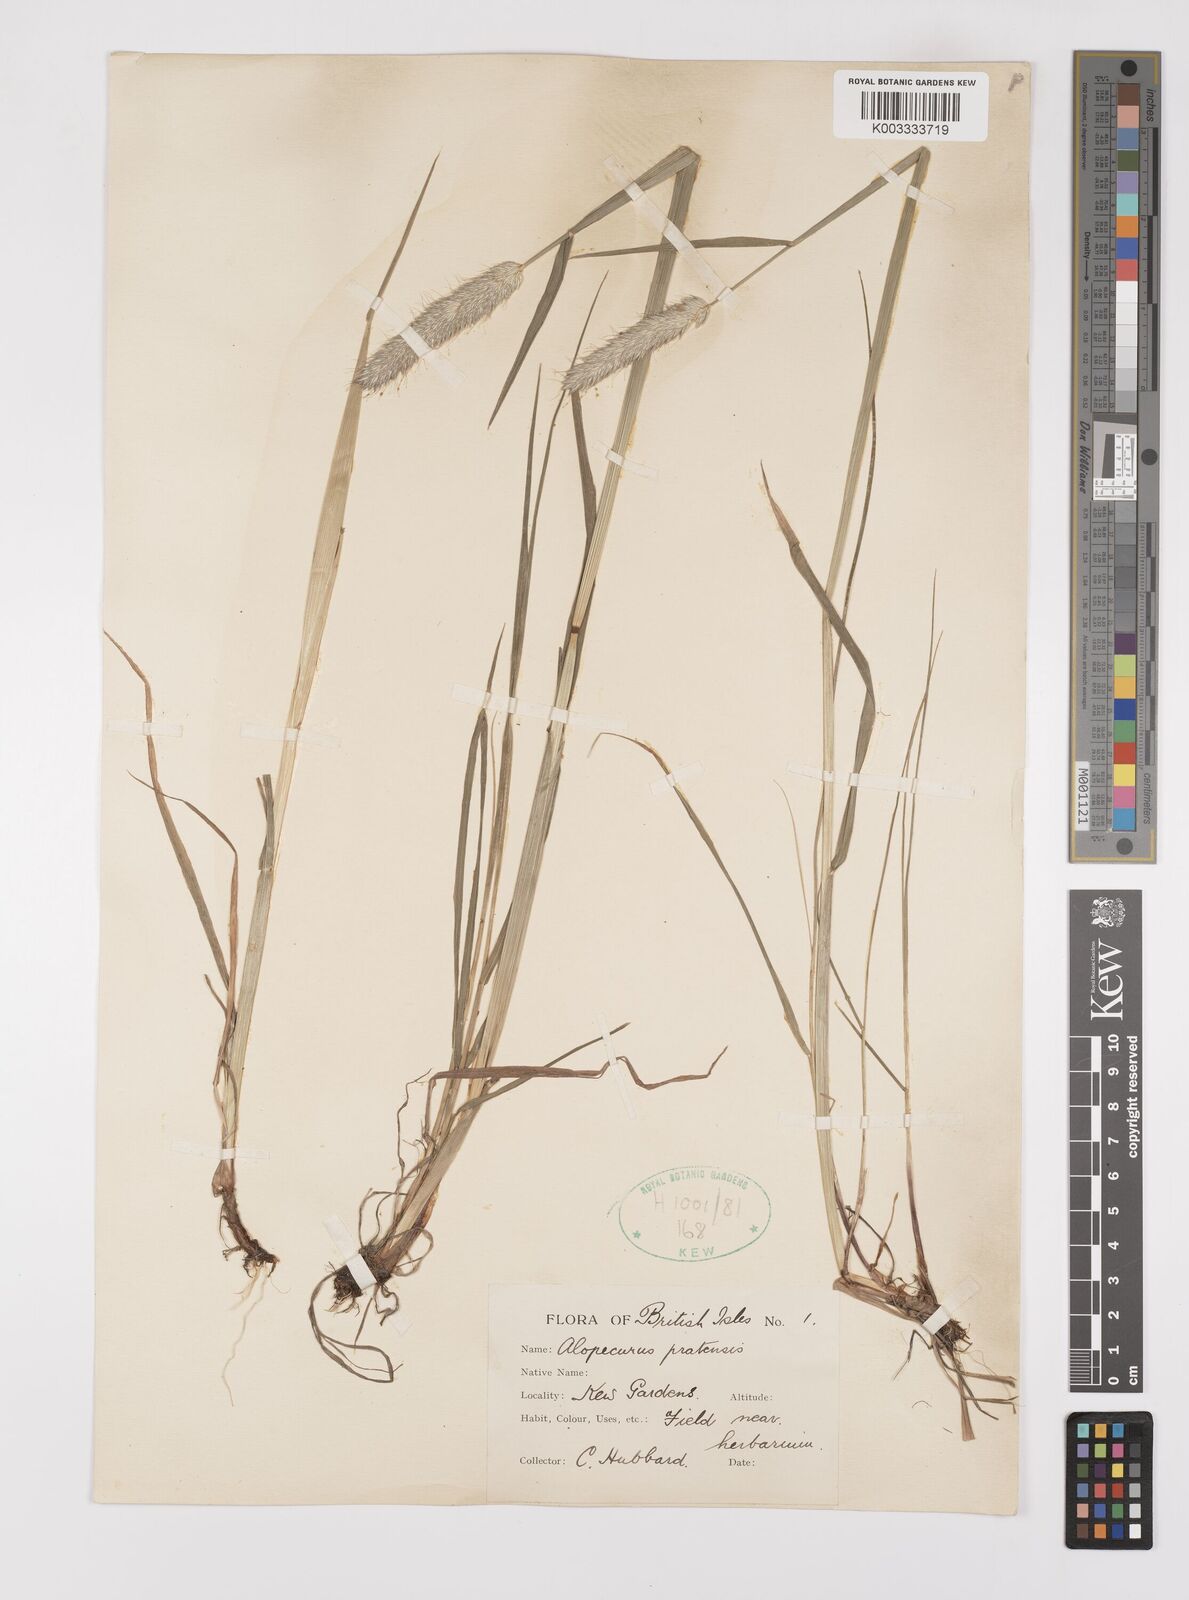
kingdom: Plantae
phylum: Tracheophyta
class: Liliopsida
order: Poales
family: Poaceae
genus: Alopecurus
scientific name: Alopecurus pratensis
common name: Meadow foxtail
